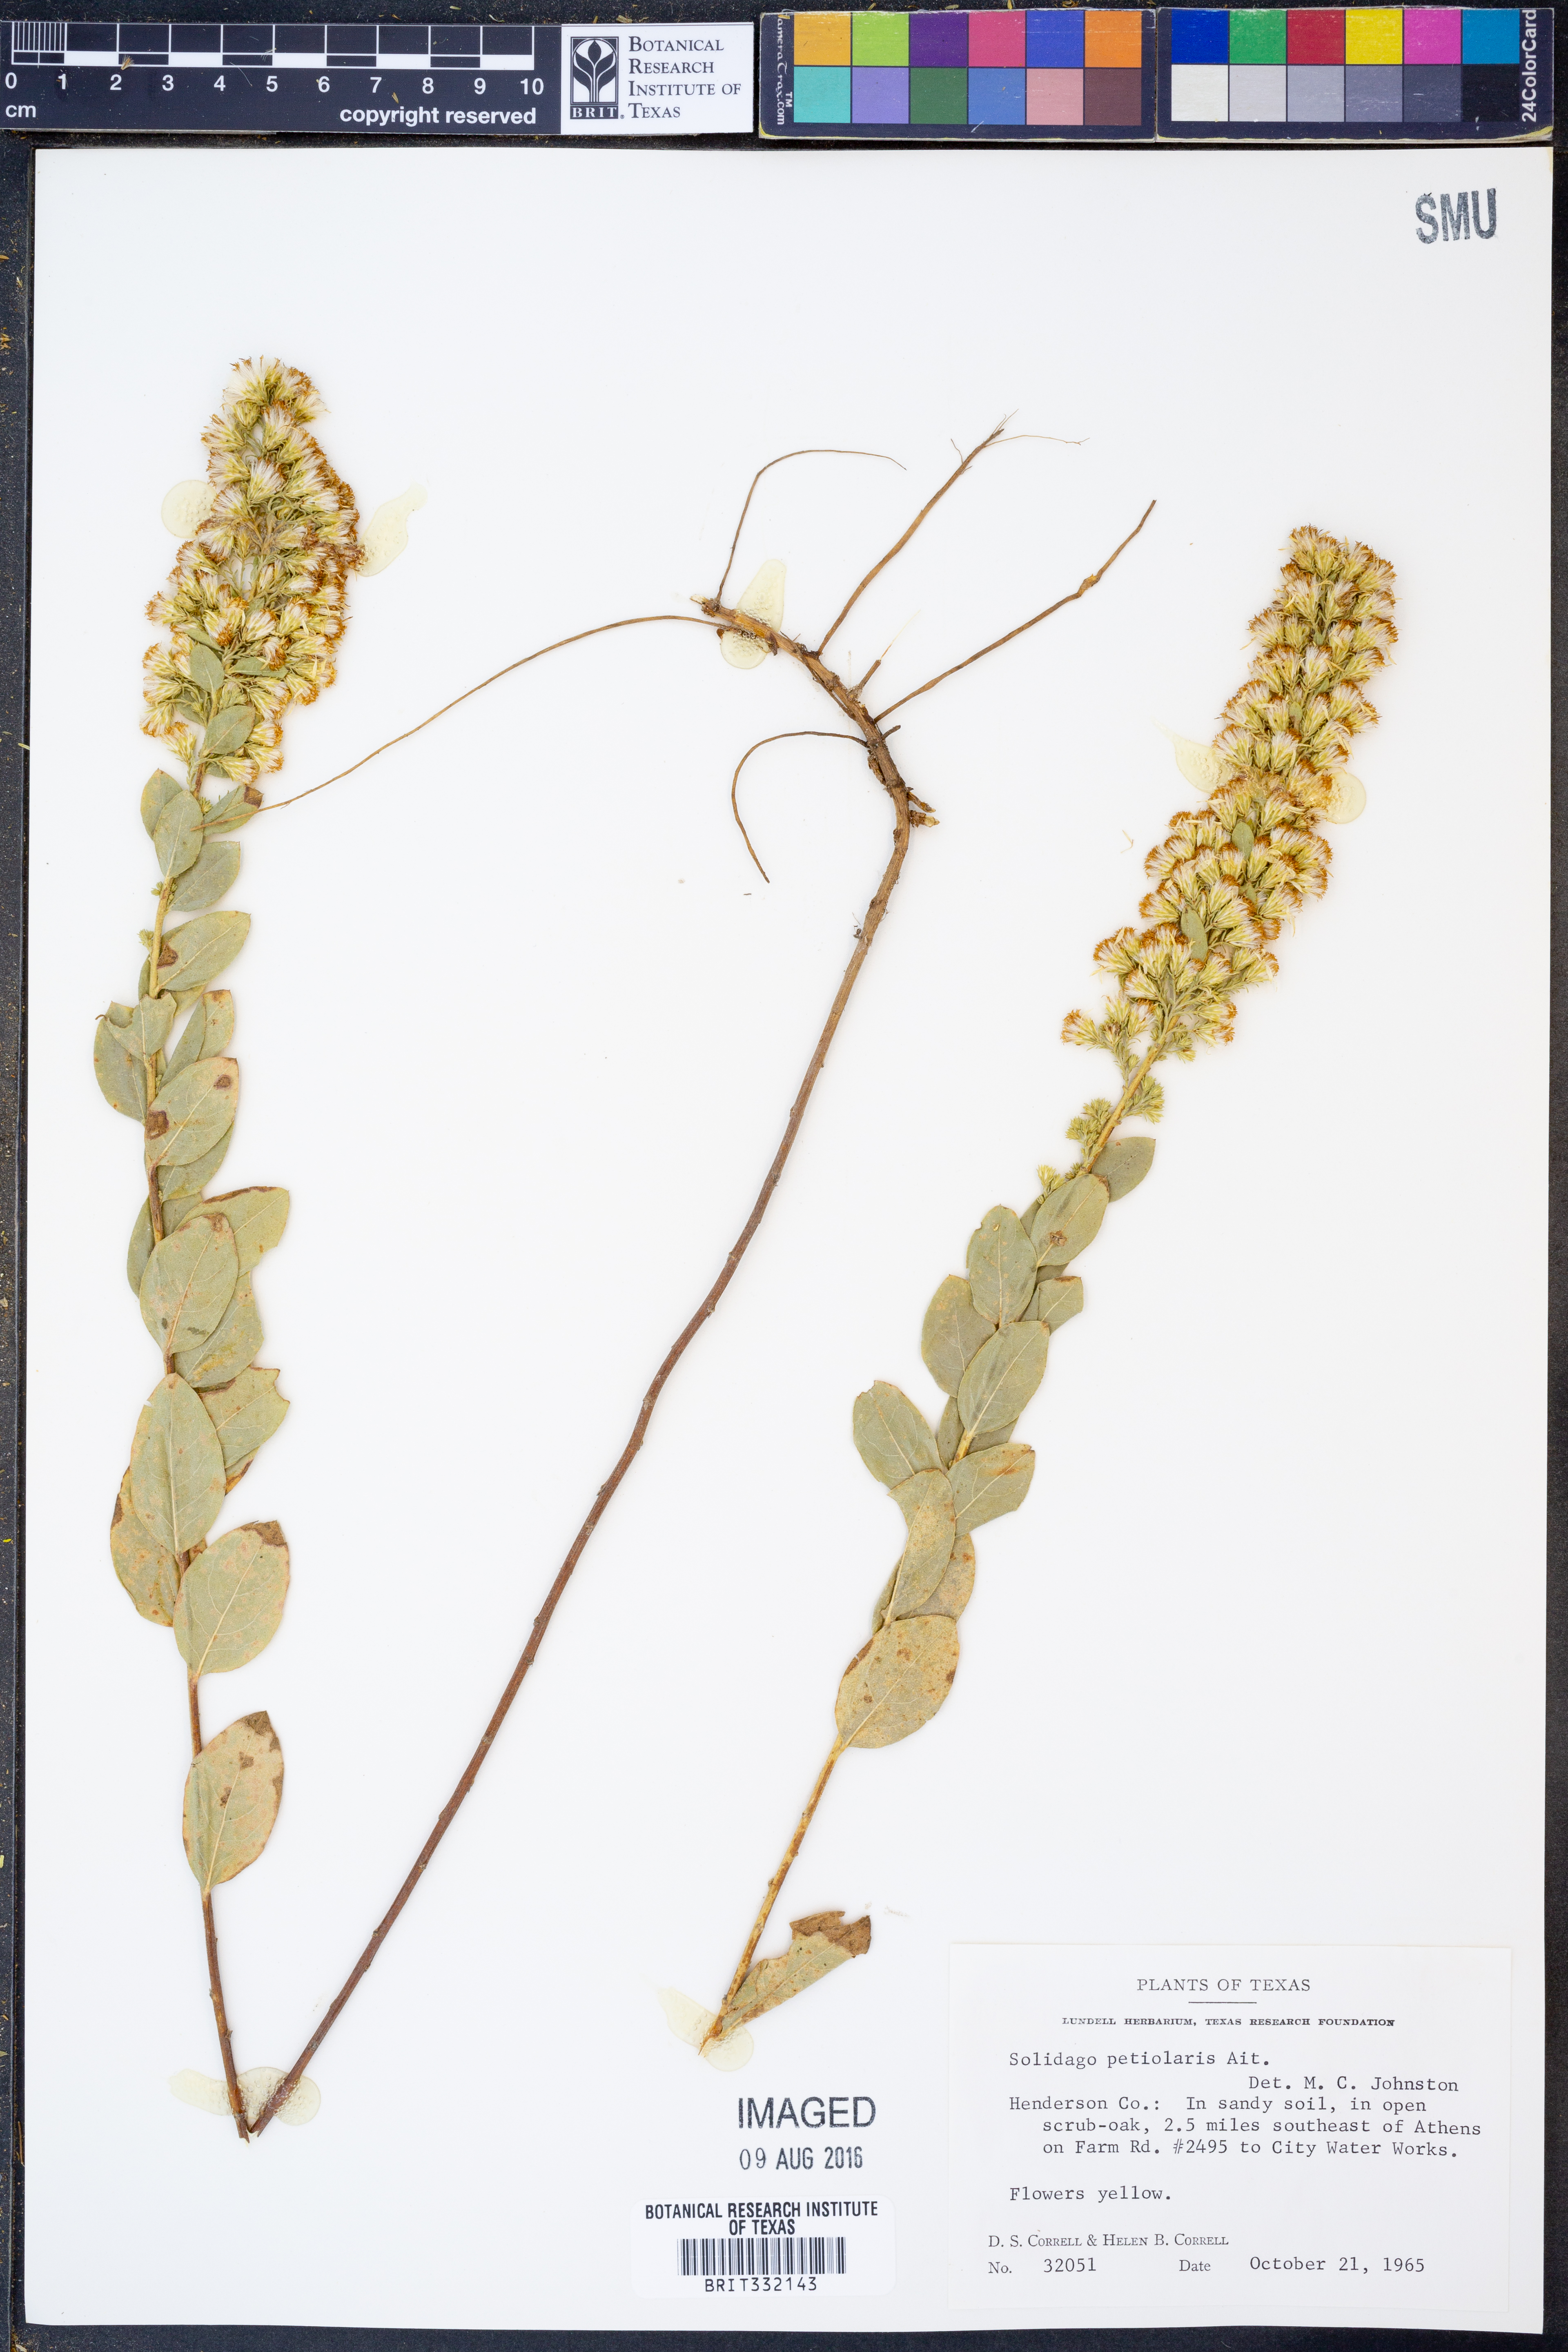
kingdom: Plantae
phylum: Tracheophyta
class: Magnoliopsida
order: Asterales
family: Asteraceae
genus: Solidago
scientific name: Solidago petiolaris
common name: Downy ragged goldenrod
